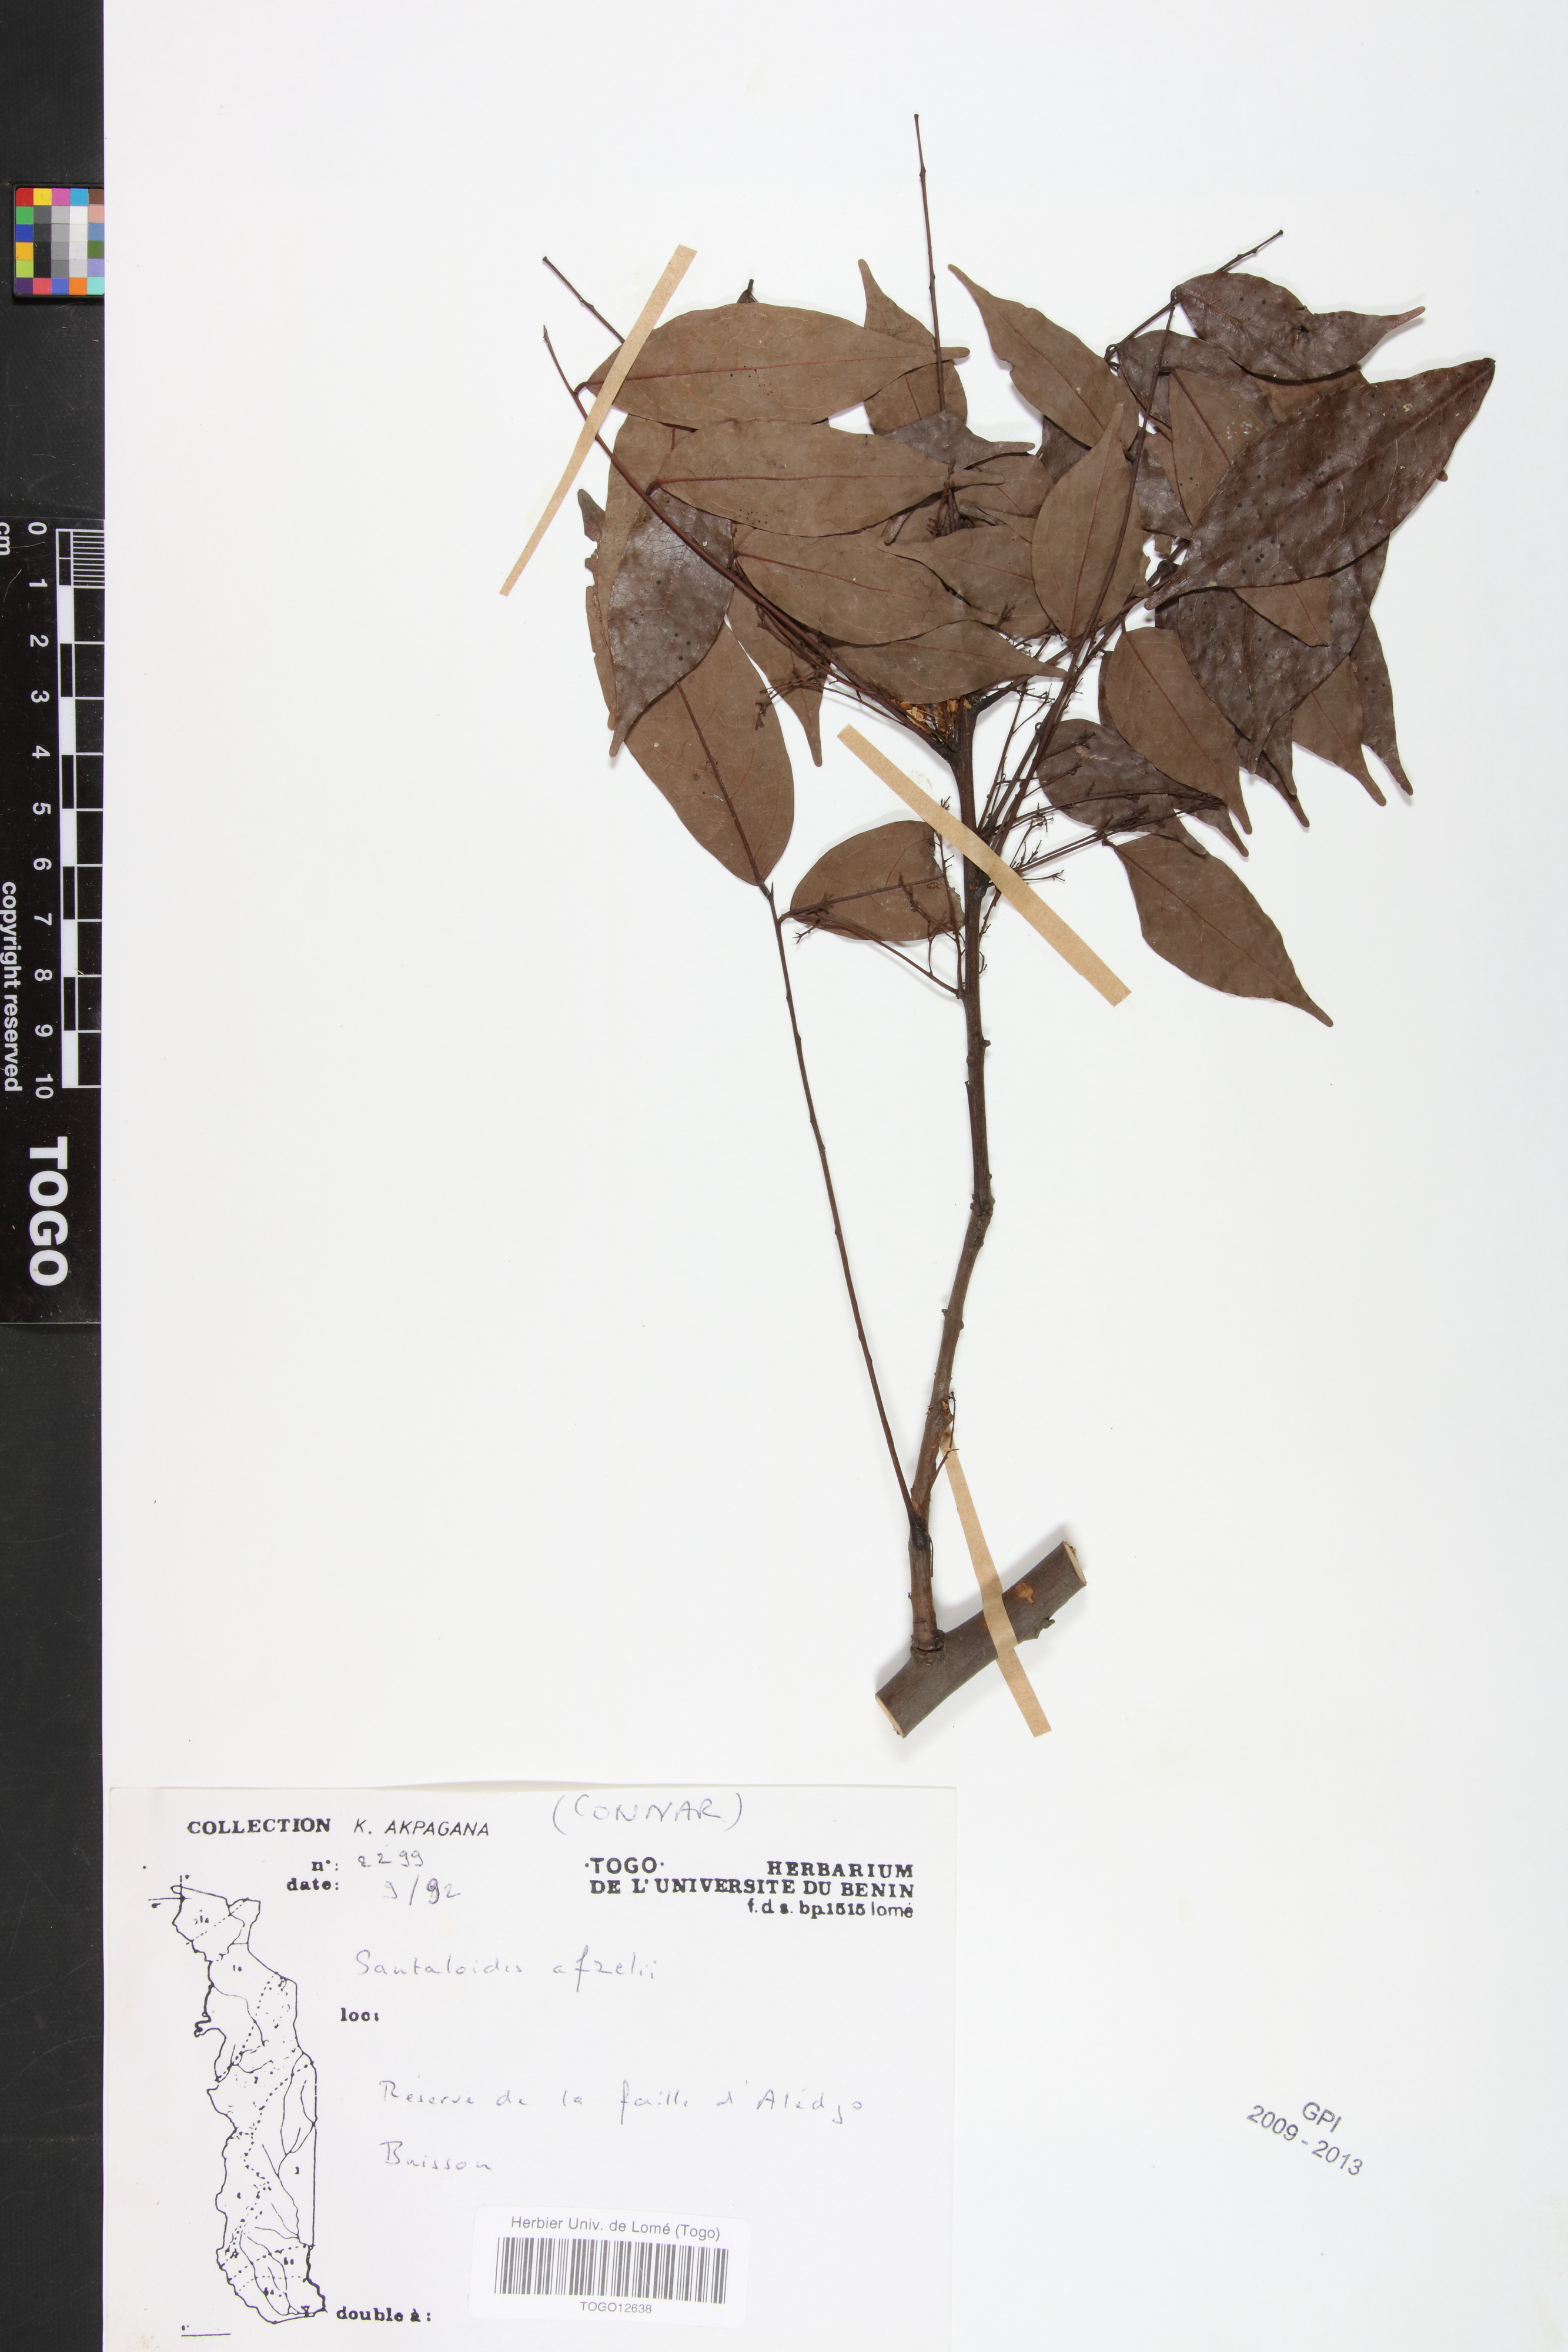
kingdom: Plantae
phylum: Tracheophyta
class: Magnoliopsida
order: Oxalidales
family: Connaraceae
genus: Rourea
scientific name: Rourea minor
